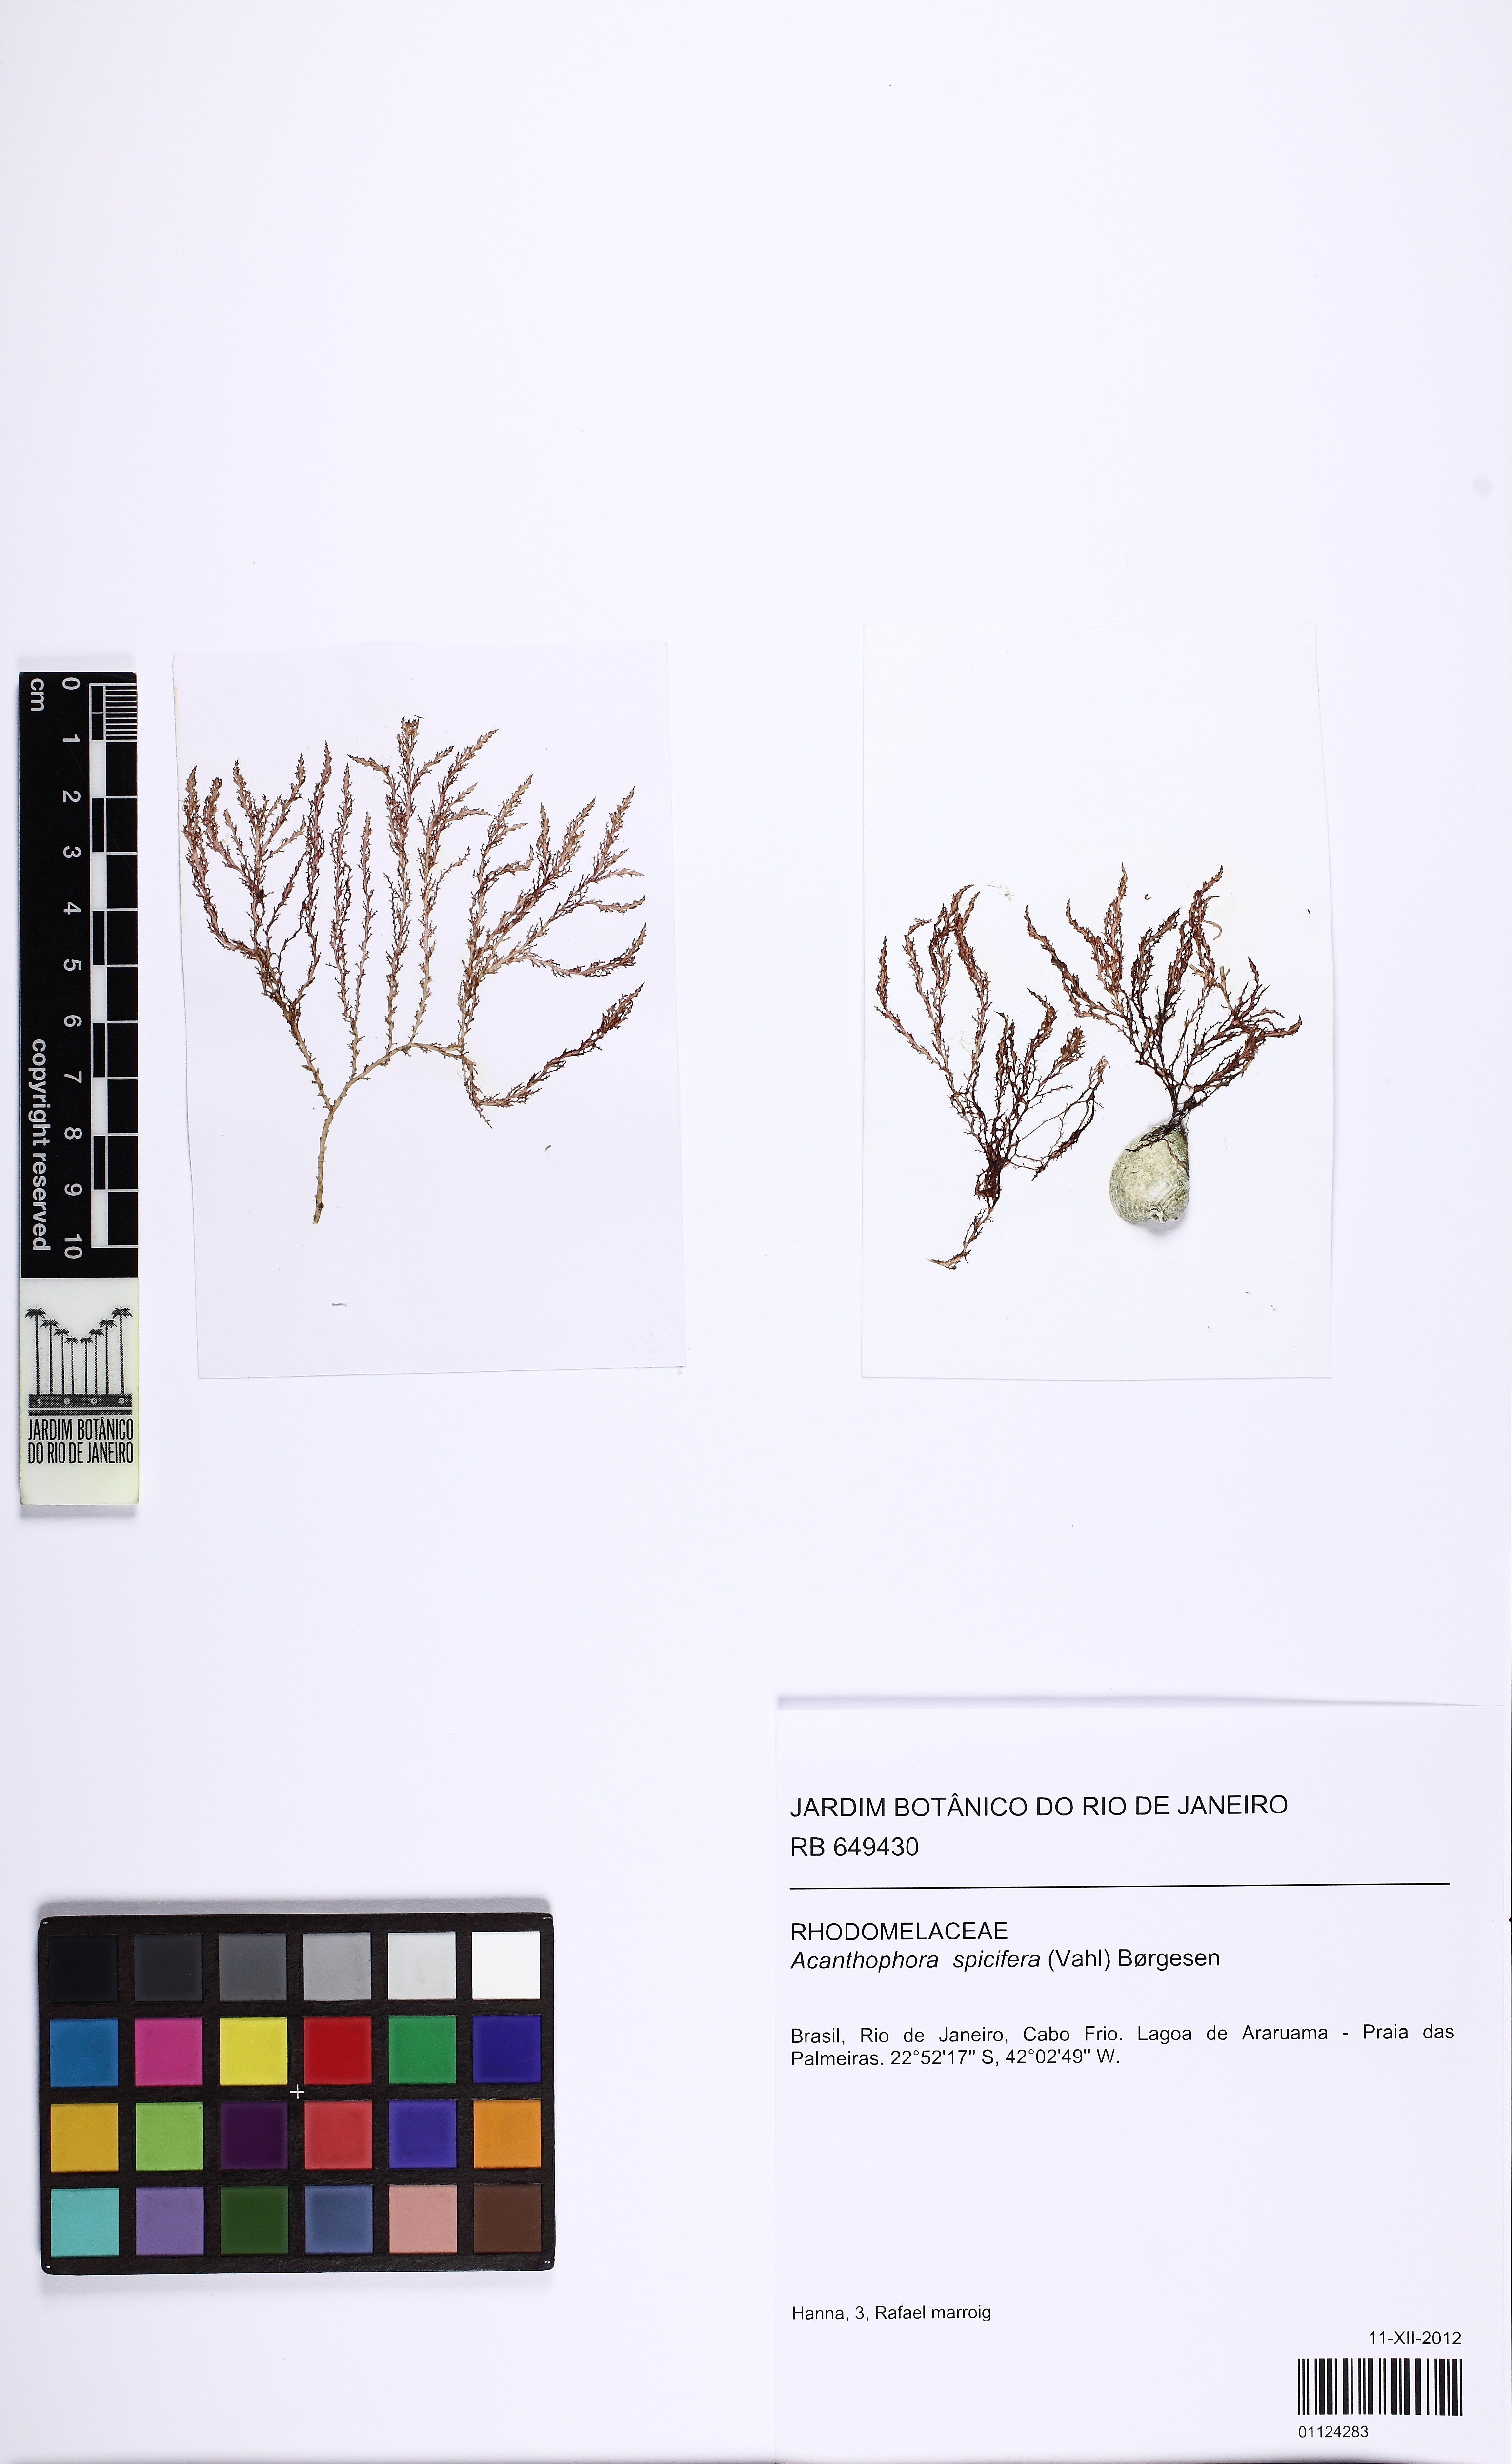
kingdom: Plantae
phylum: Rhodophyta
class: Florideophyceae
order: Ceramiales
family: Rhodomelaceae
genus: Acanthophora
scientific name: Acanthophora spicifera
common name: Red algae
